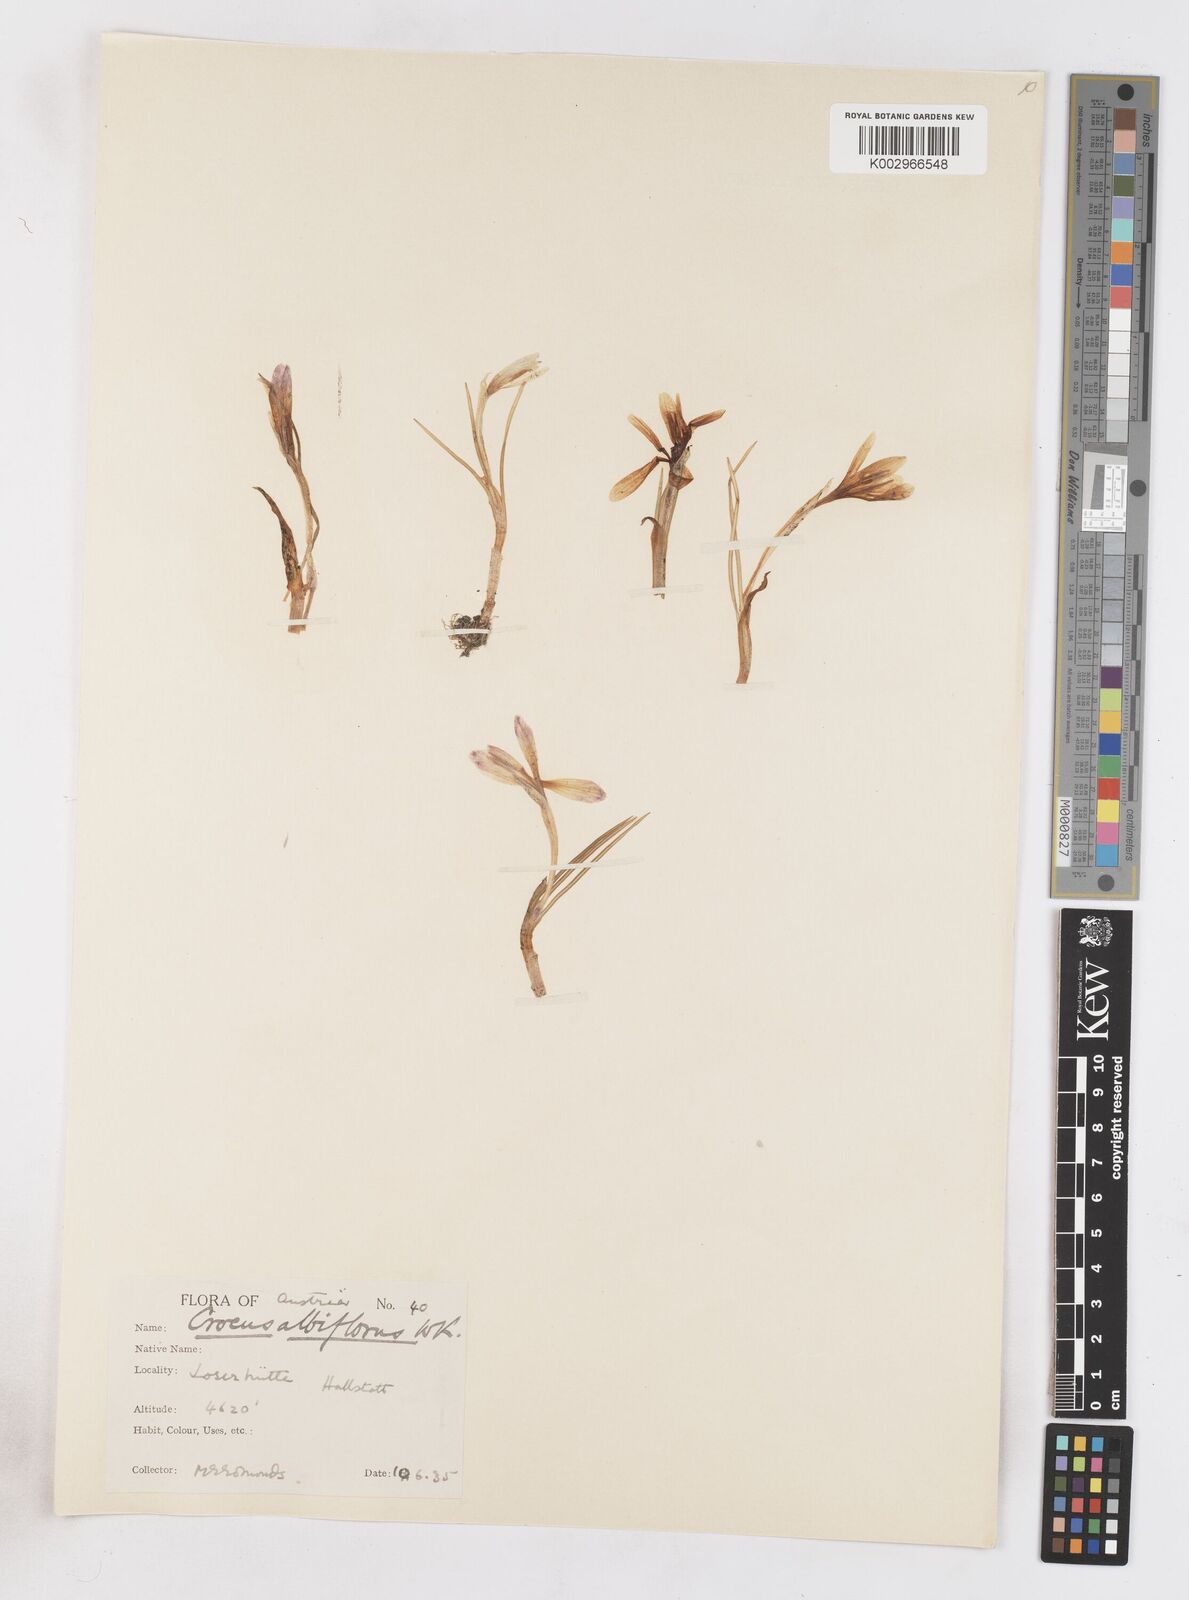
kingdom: Plantae
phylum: Tracheophyta
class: Liliopsida
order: Asparagales
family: Iridaceae
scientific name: Iridaceae
